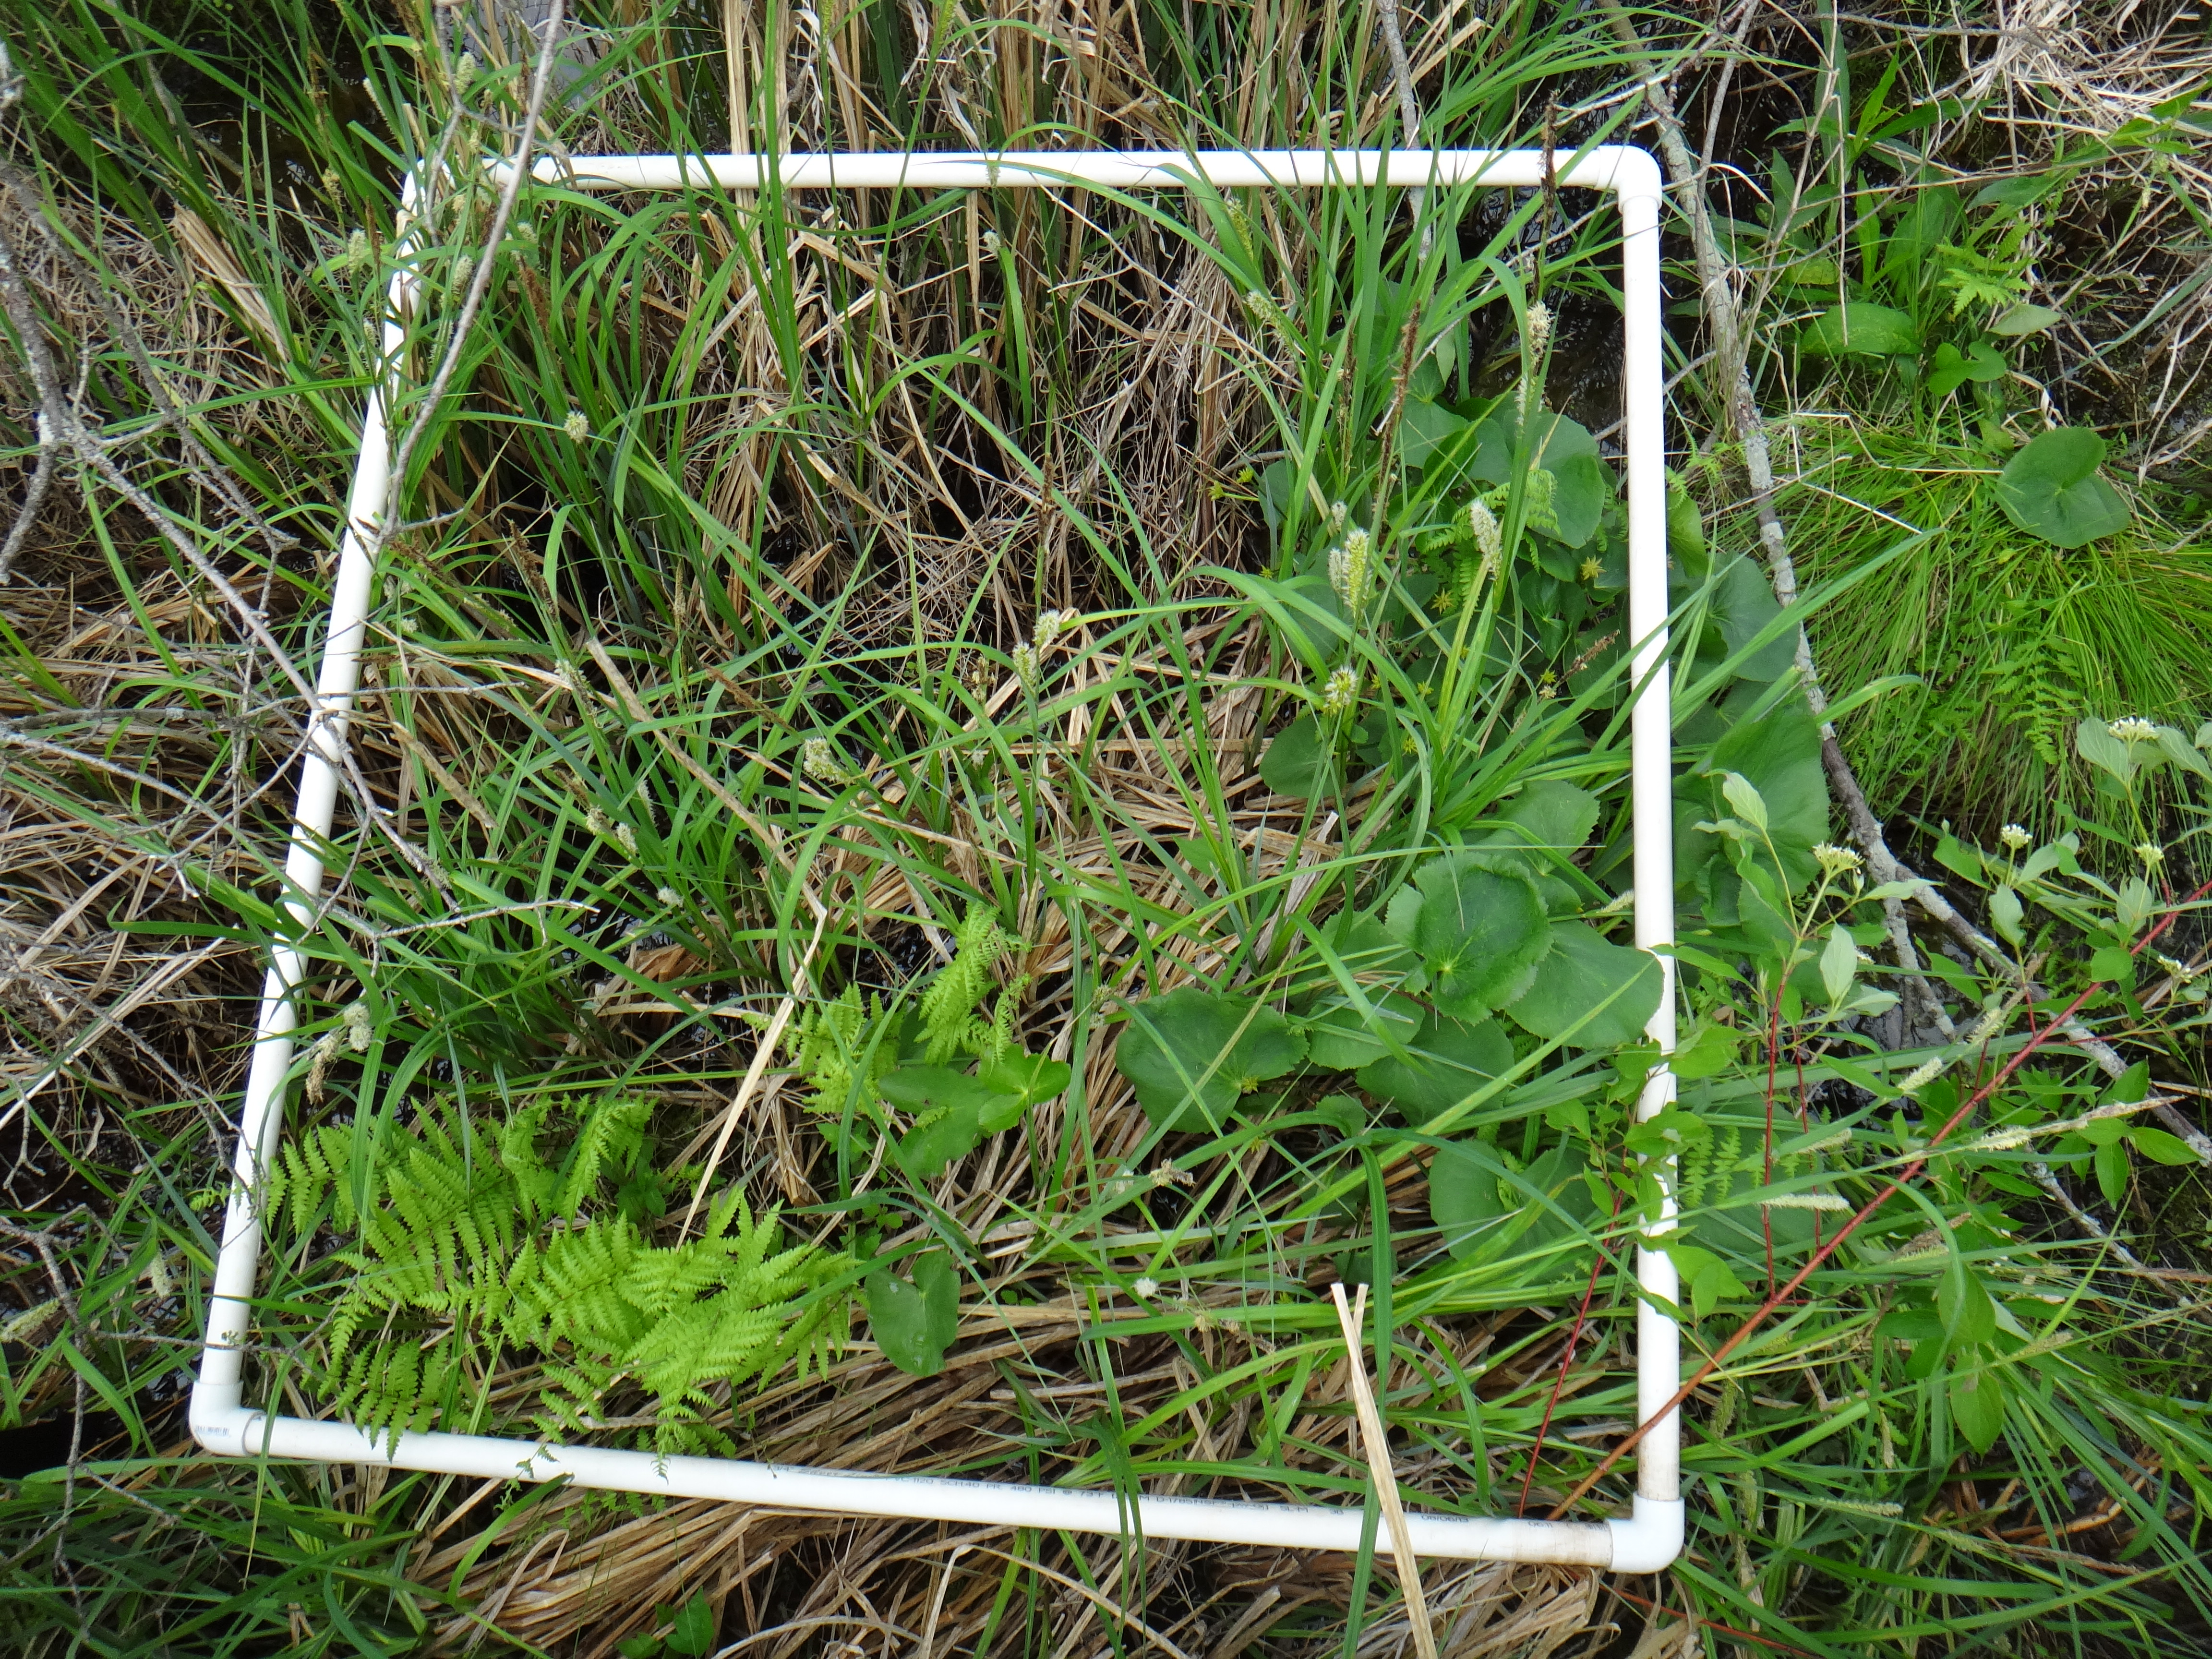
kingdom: Plantae
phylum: Tracheophyta
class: Magnoliopsida
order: Lamiales
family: Lamiaceae
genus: Lycopus
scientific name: Lycopus americanus
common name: American bugleweed
